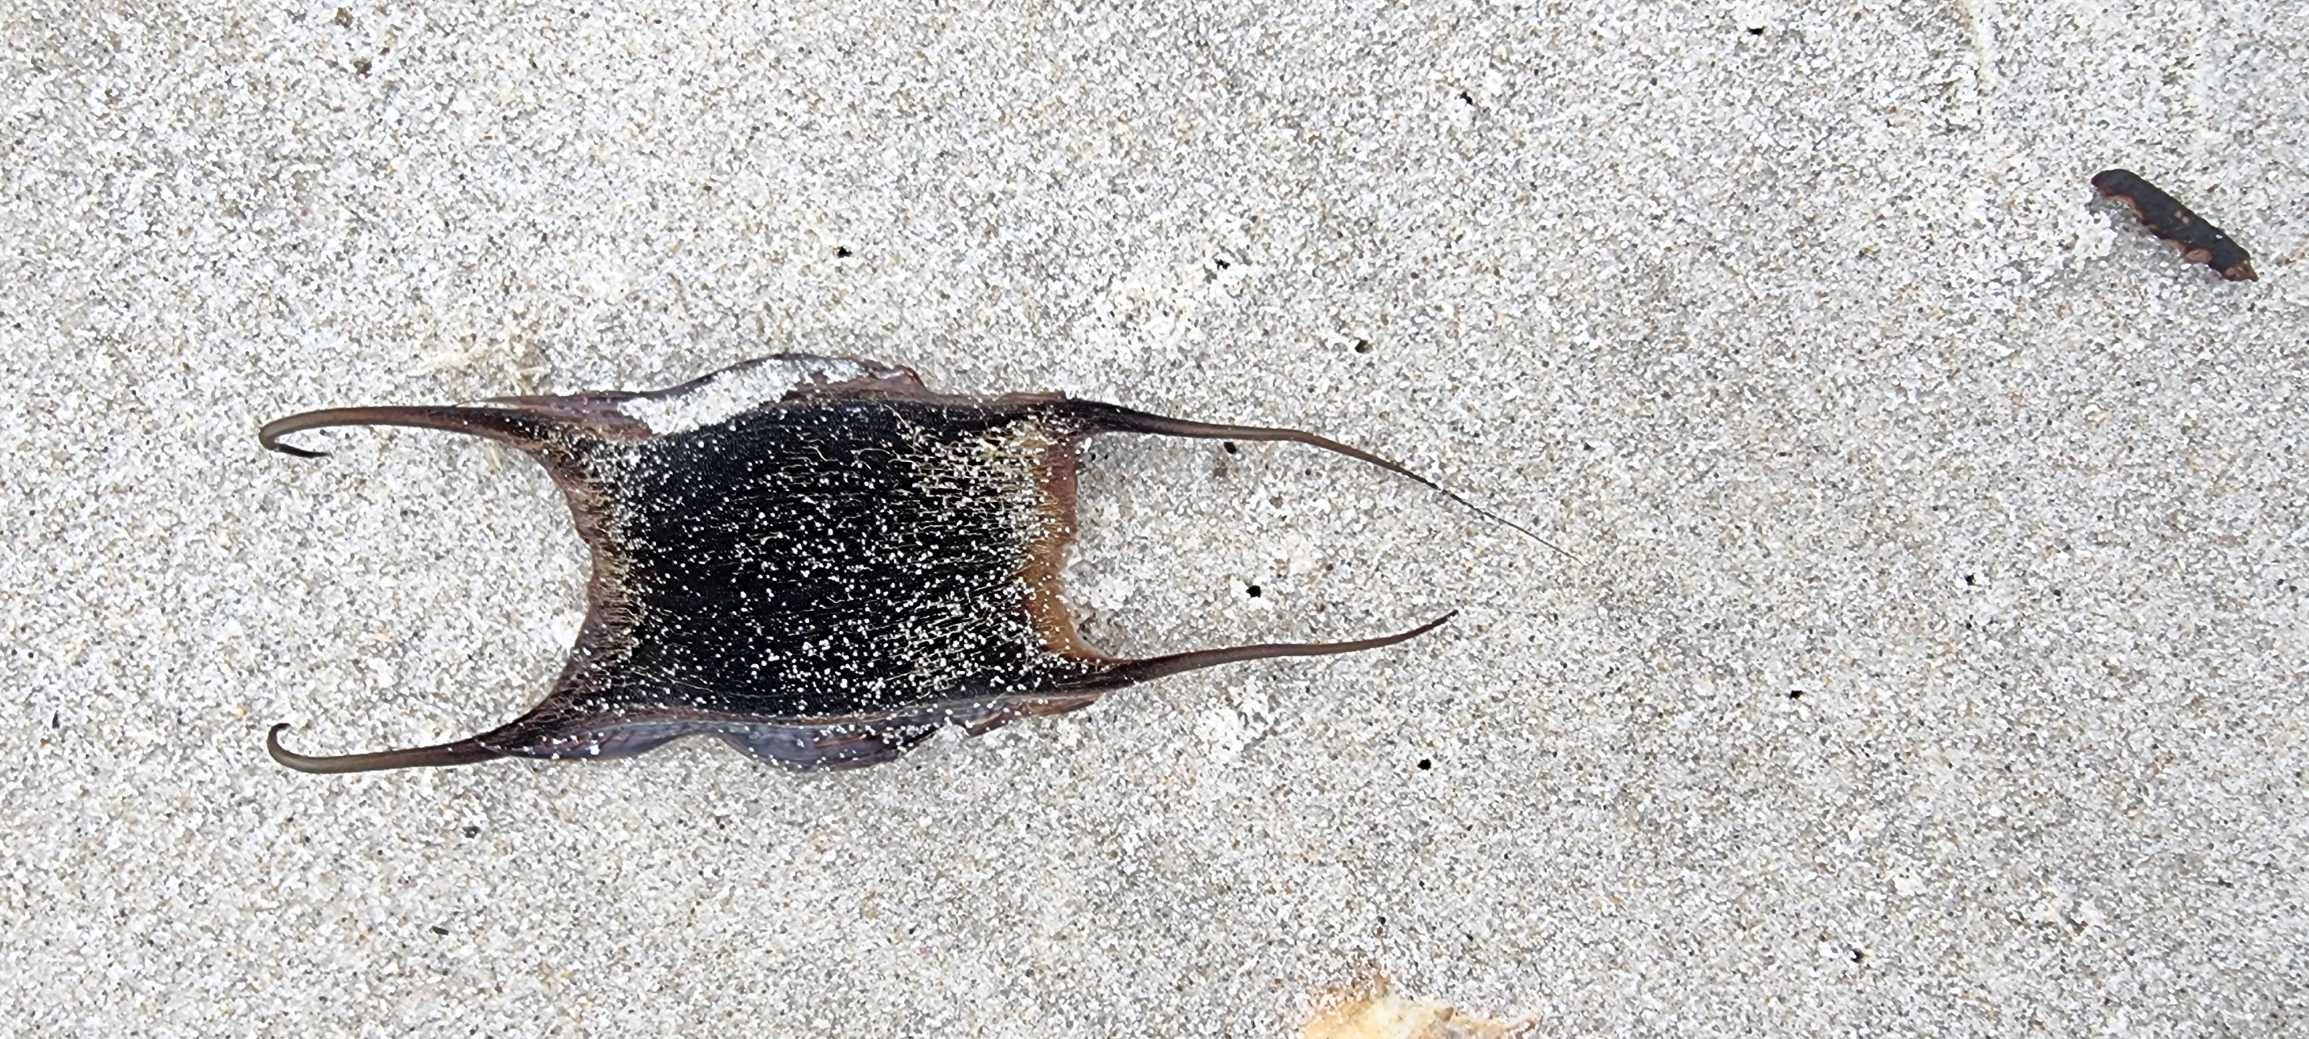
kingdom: Animalia
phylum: Chordata
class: Elasmobranchii
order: Rajiformes
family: Rajidae
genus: Amblyraja
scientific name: Amblyraja radiata
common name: Tærbe
